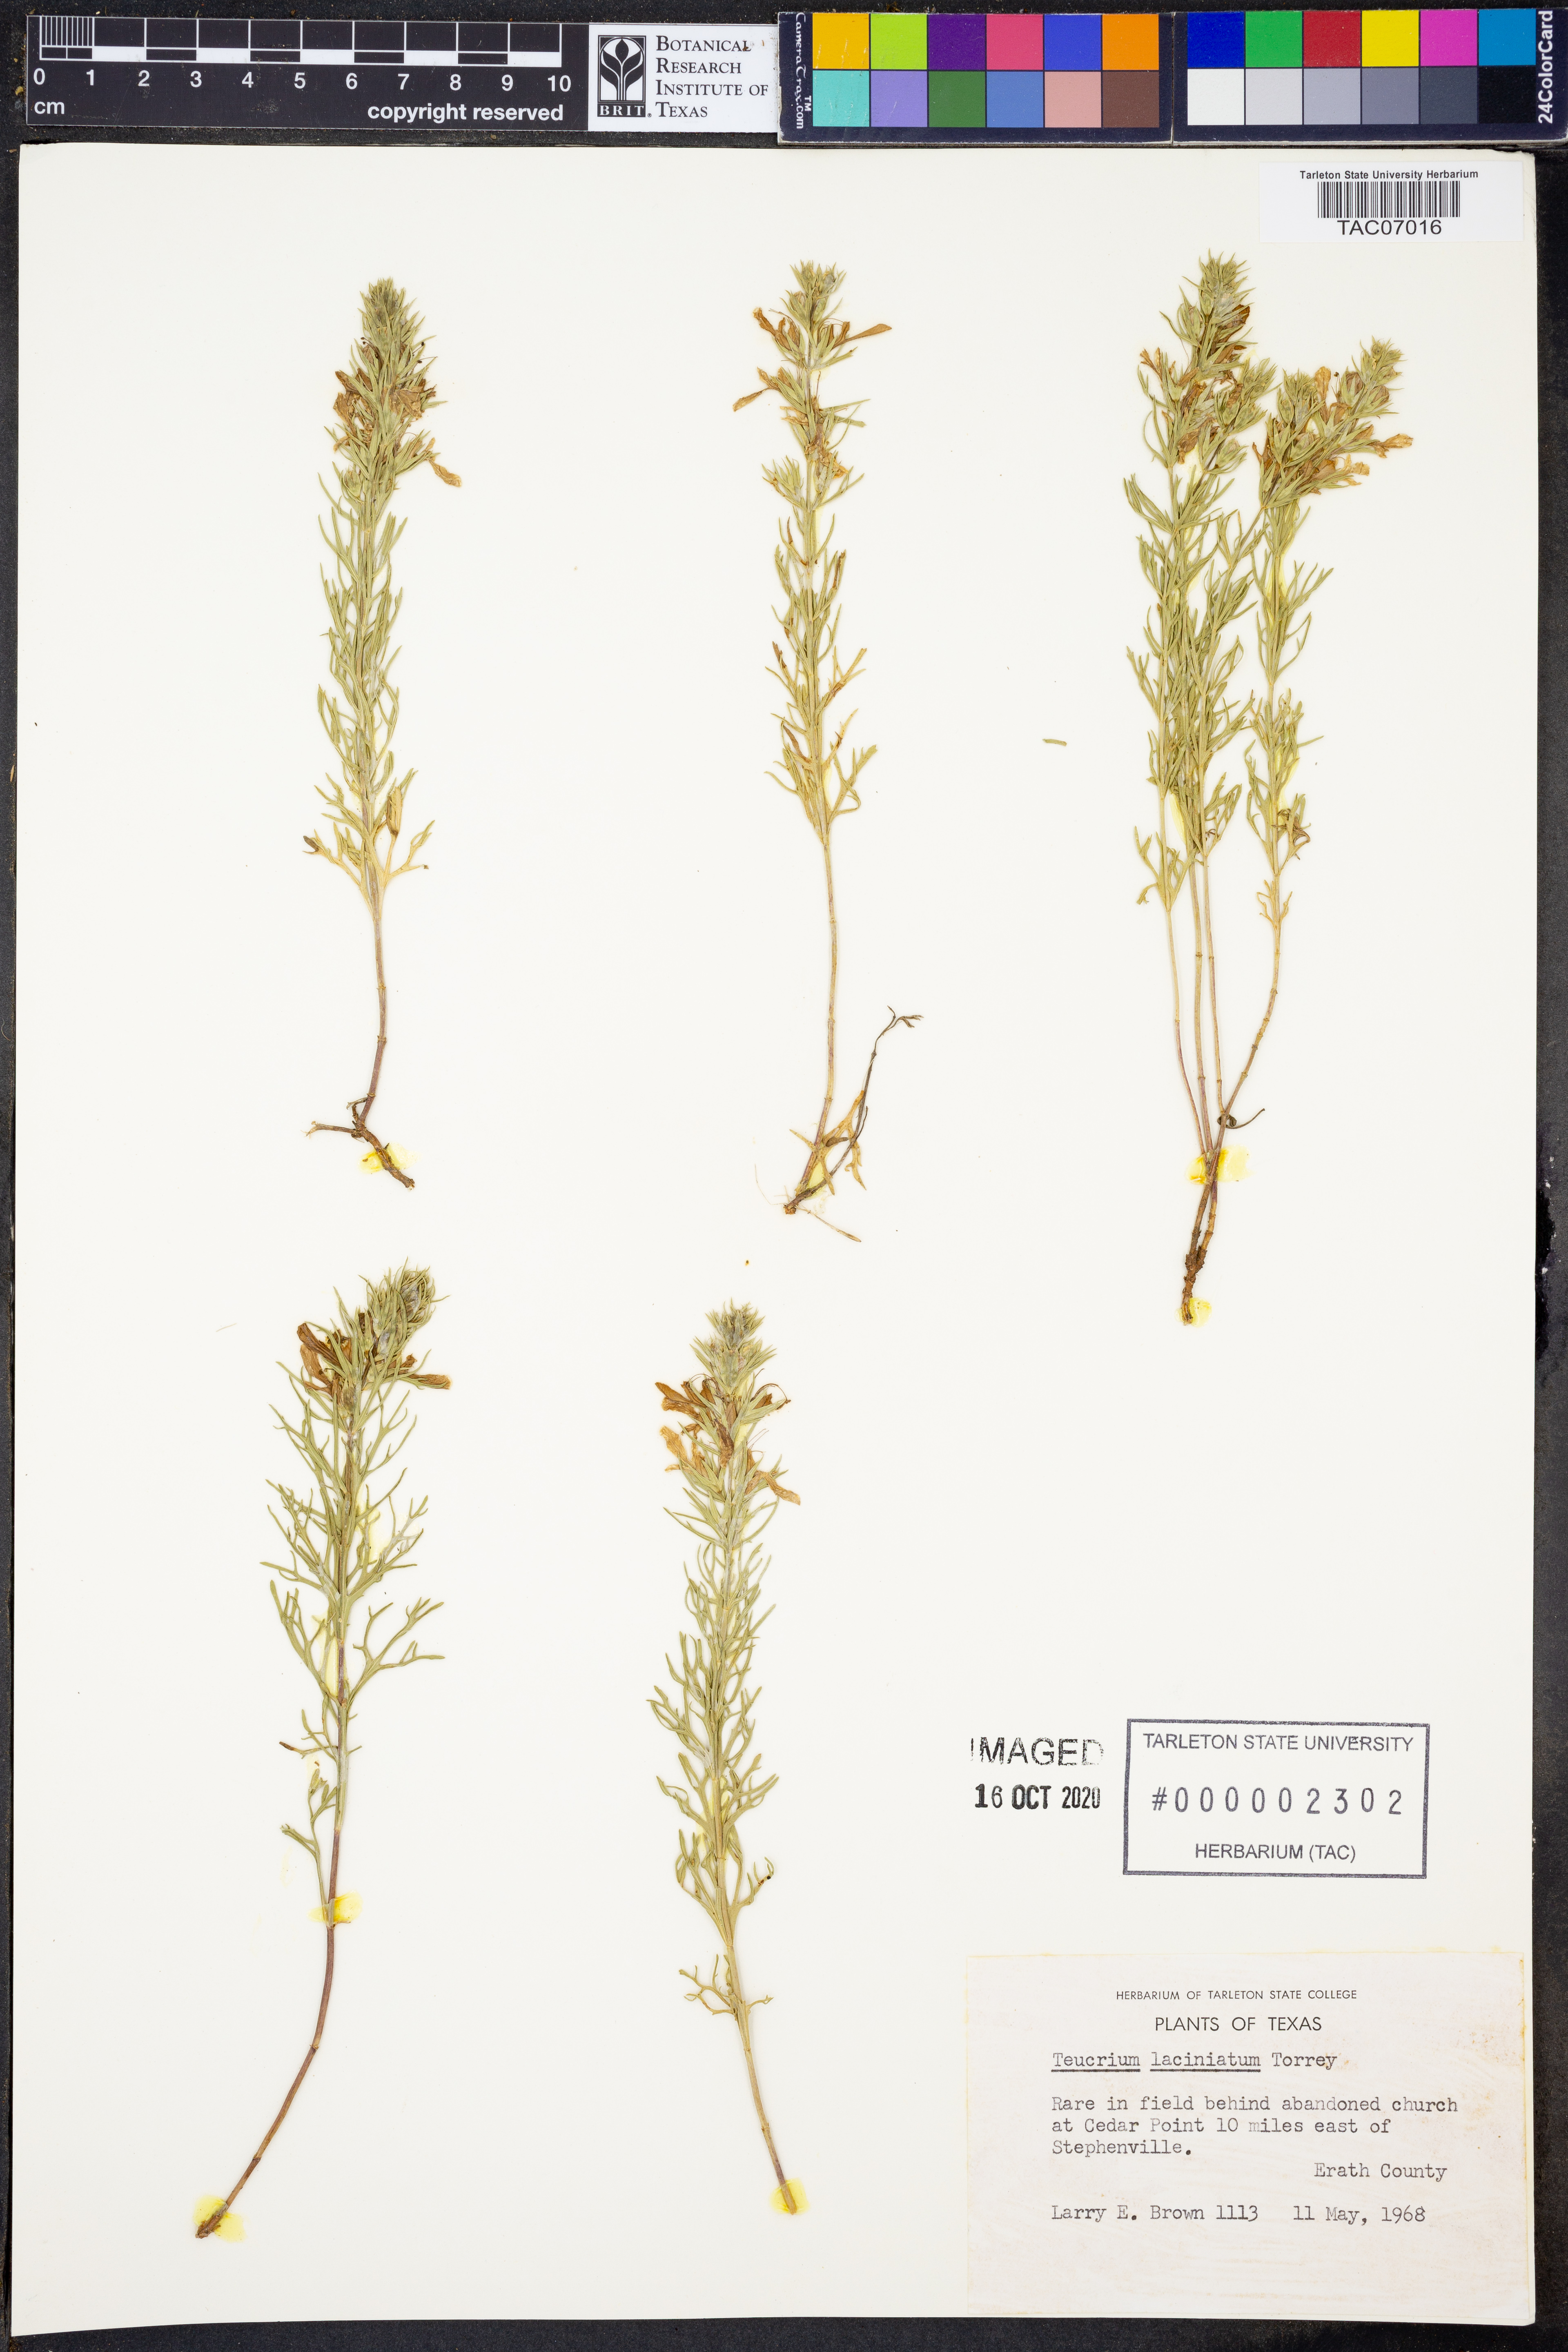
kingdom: Plantae
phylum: Tracheophyta
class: Magnoliopsida
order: Lamiales
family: Lamiaceae
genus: Teucrium
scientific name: Teucrium laciniatum
